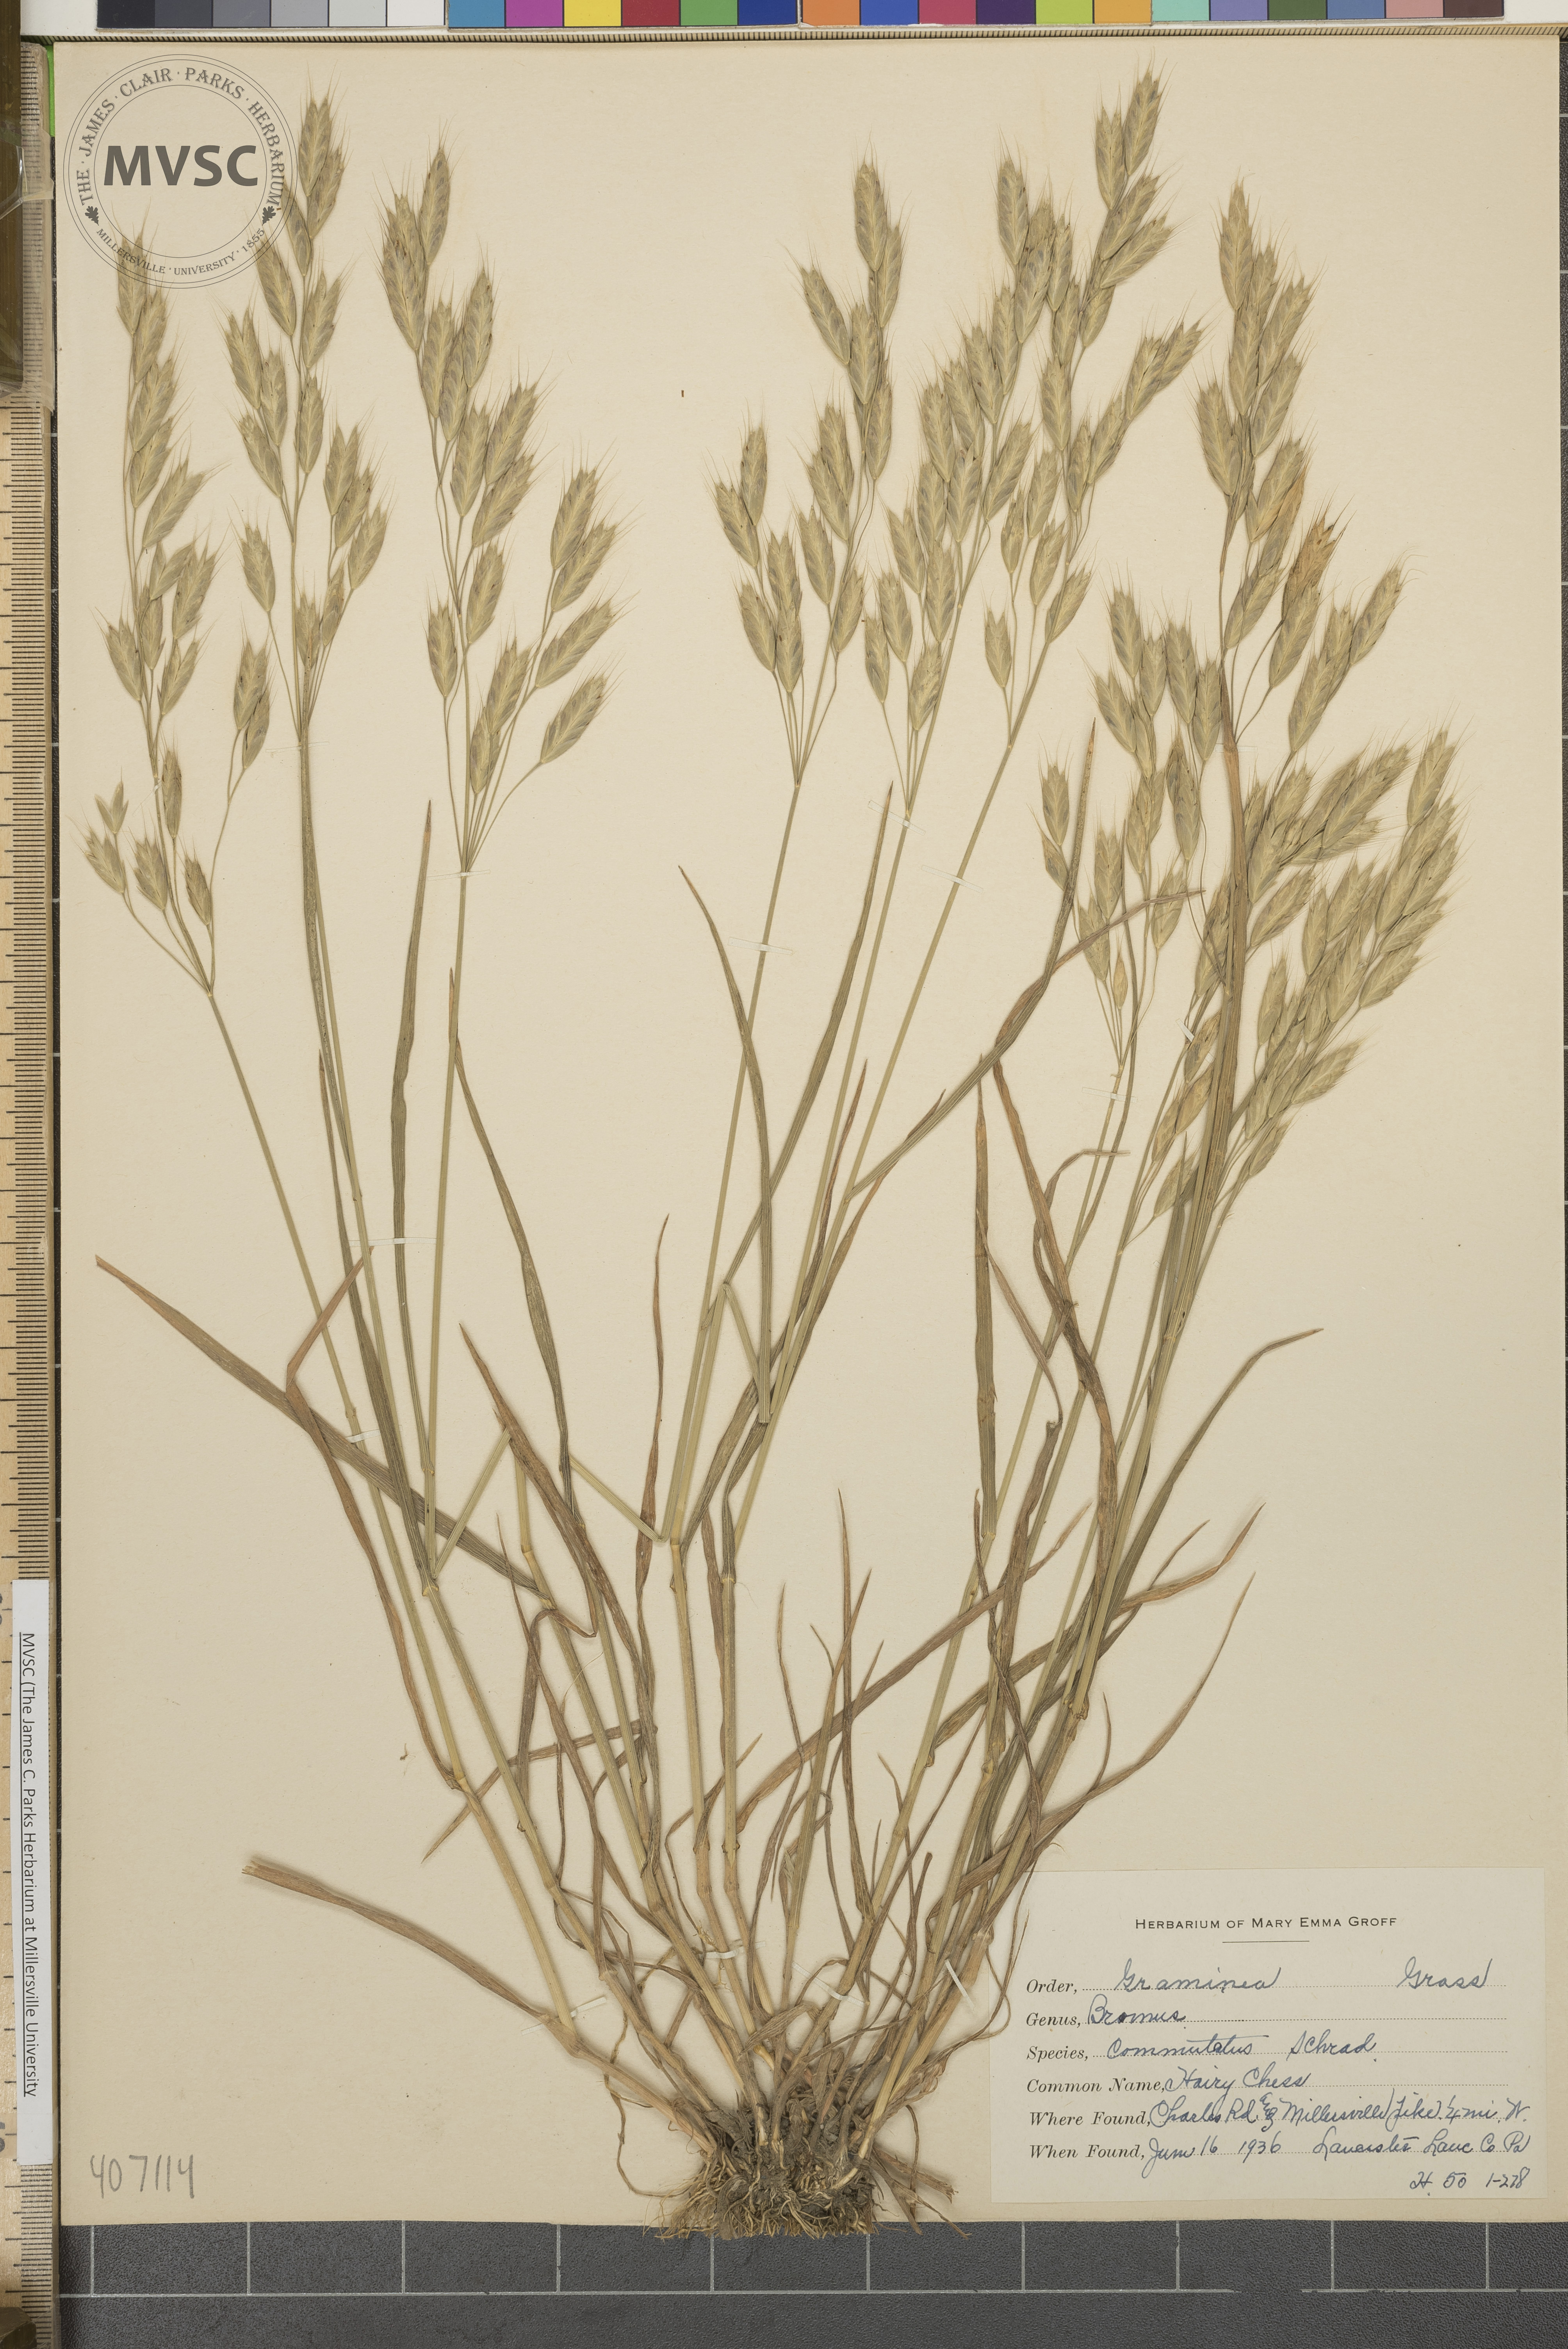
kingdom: Plantae
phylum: Tracheophyta
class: Liliopsida
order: Poales
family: Poaceae
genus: Bromus
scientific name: Bromus commutatus
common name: Meadow brome
